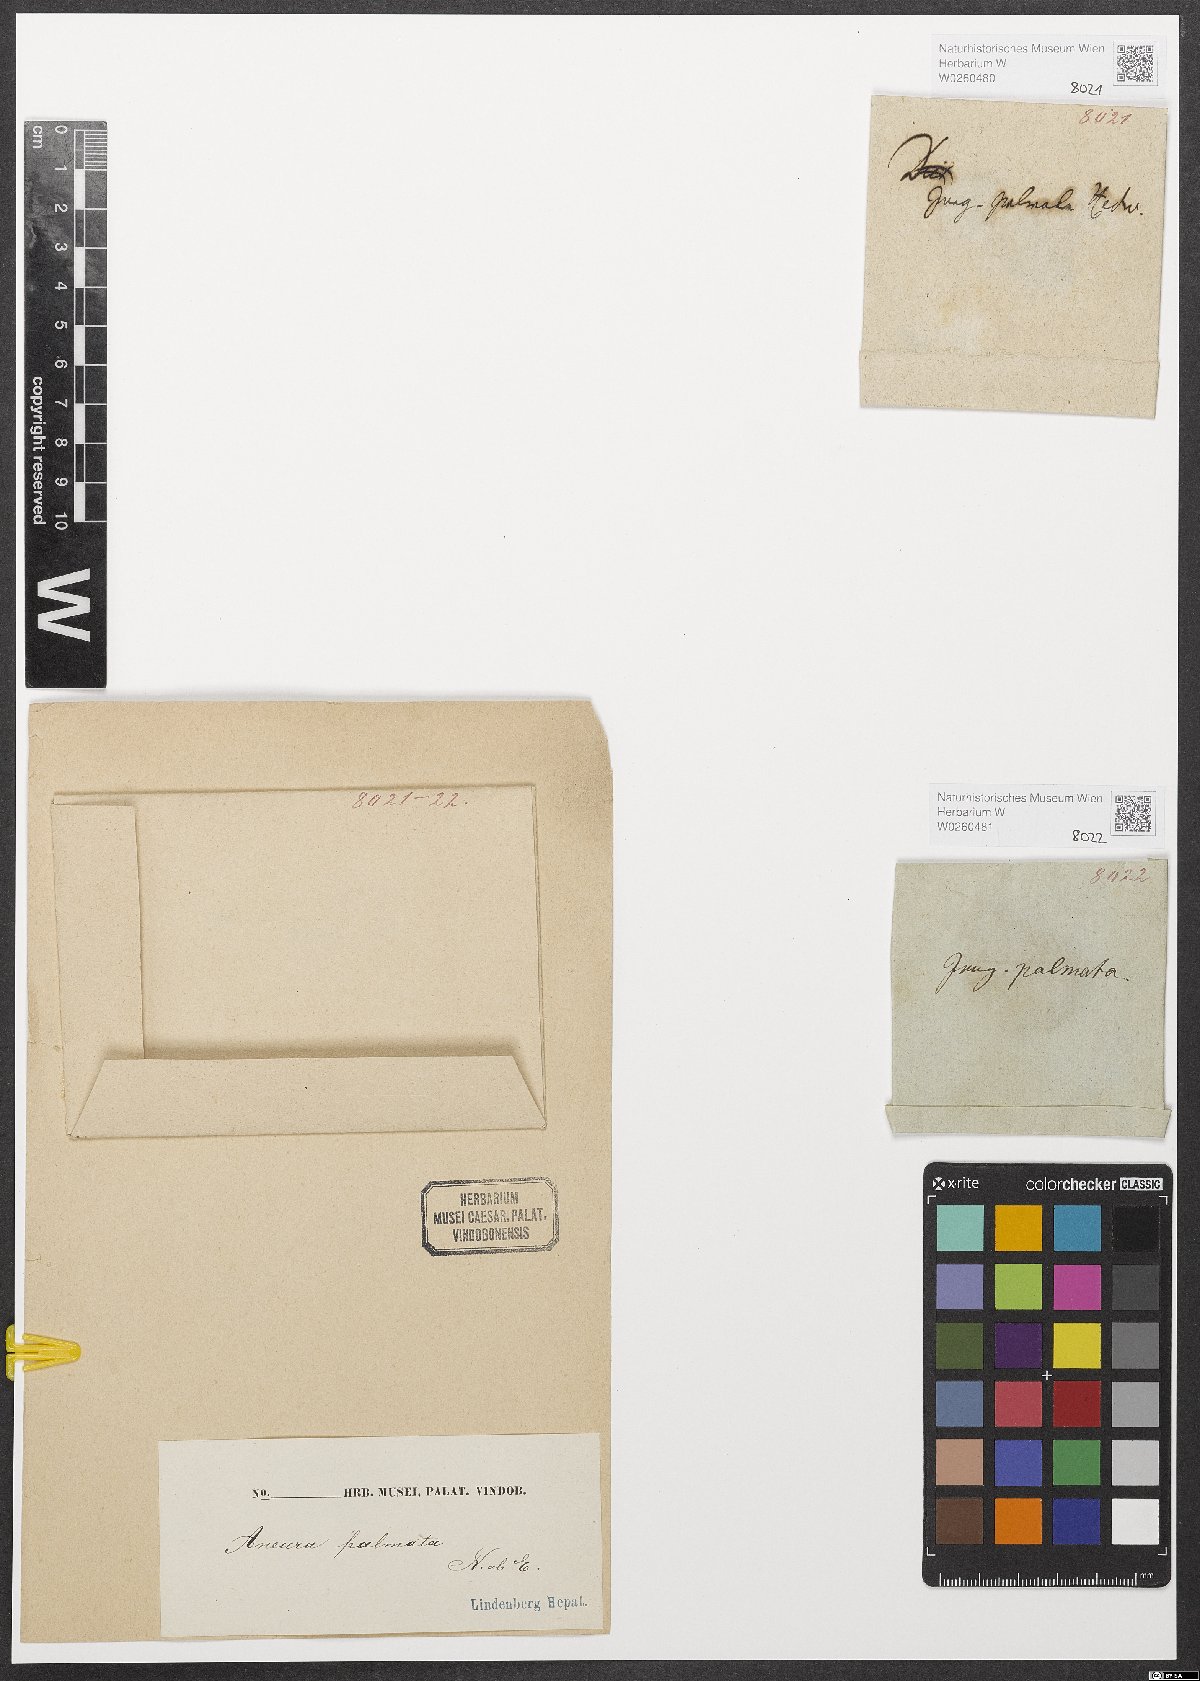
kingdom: Plantae
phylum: Marchantiophyta
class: Jungermanniopsida
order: Metzgeriales
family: Aneuraceae
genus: Riccardia
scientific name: Riccardia palmata
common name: Palmate germanderwort
